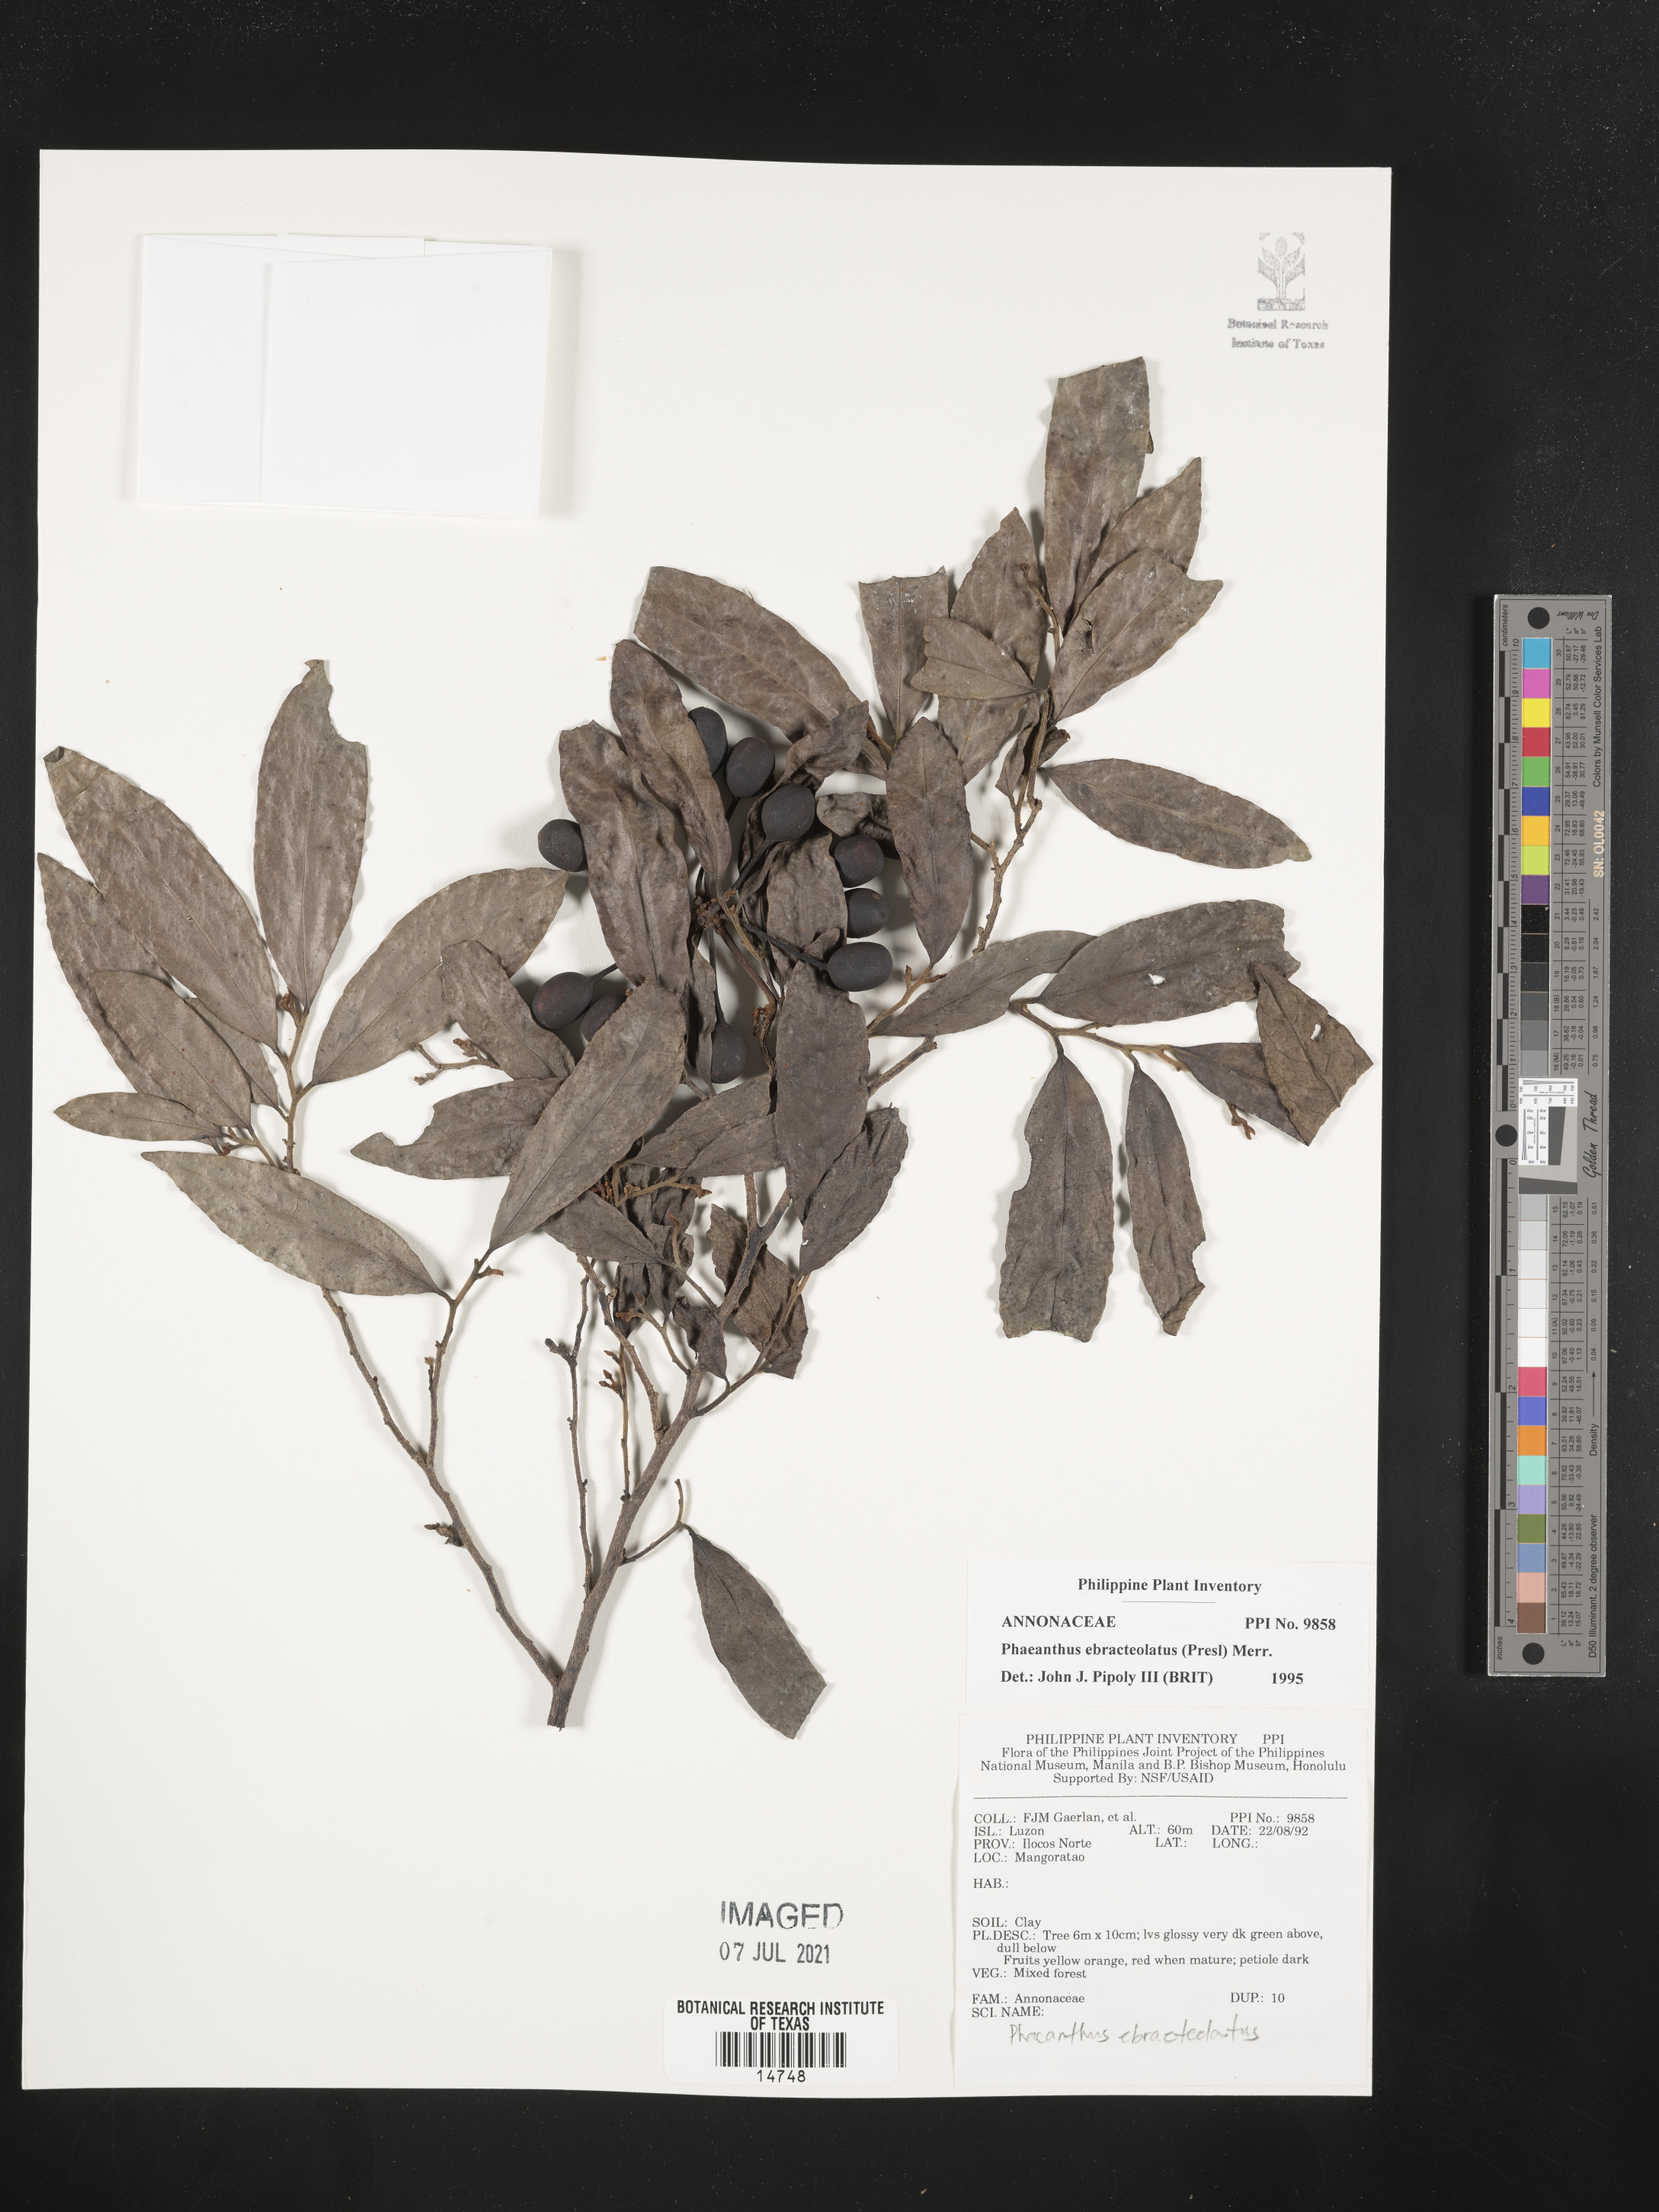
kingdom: Plantae
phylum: Tracheophyta
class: Magnoliopsida
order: Magnoliales
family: Annonaceae
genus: Phaeanthus
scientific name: Phaeanthus ophthalmicus
